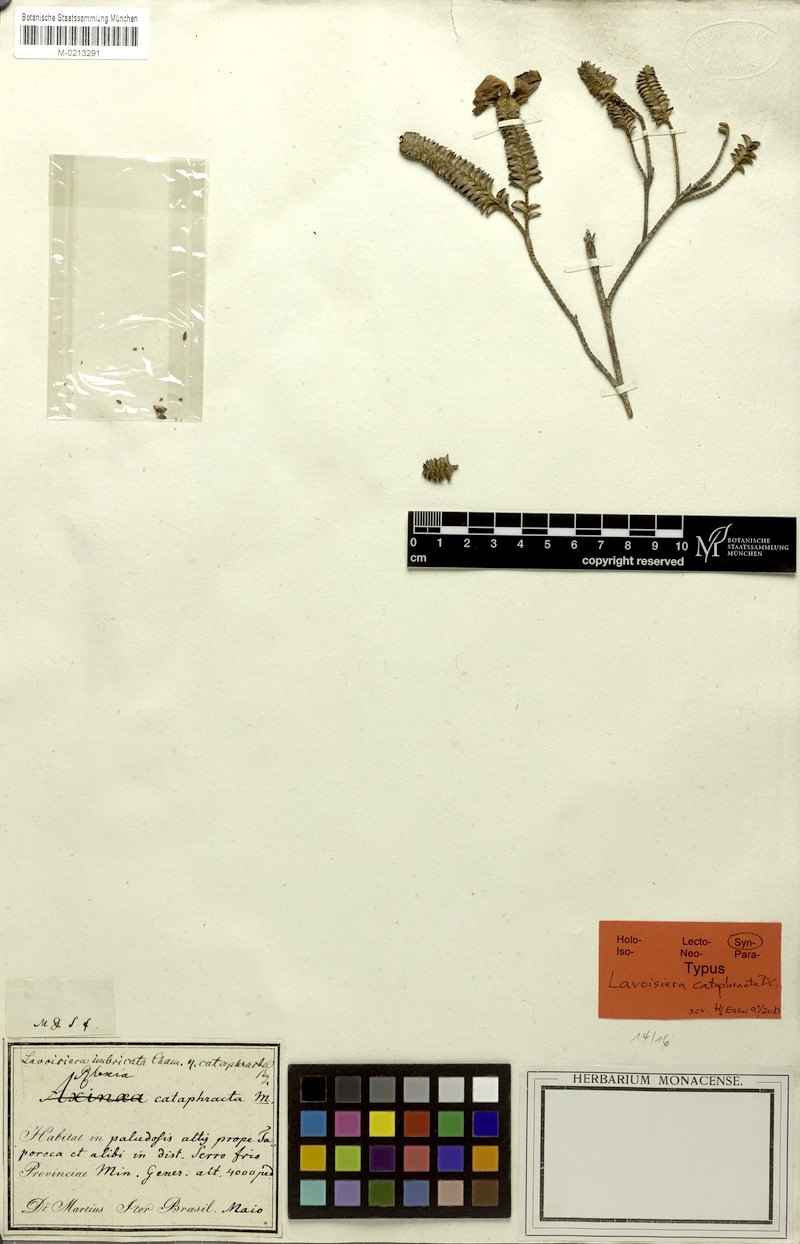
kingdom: Plantae
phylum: Tracheophyta
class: Magnoliopsida
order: Myrtales
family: Melastomataceae
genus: Microlicia
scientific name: Microlicia cataphracta
